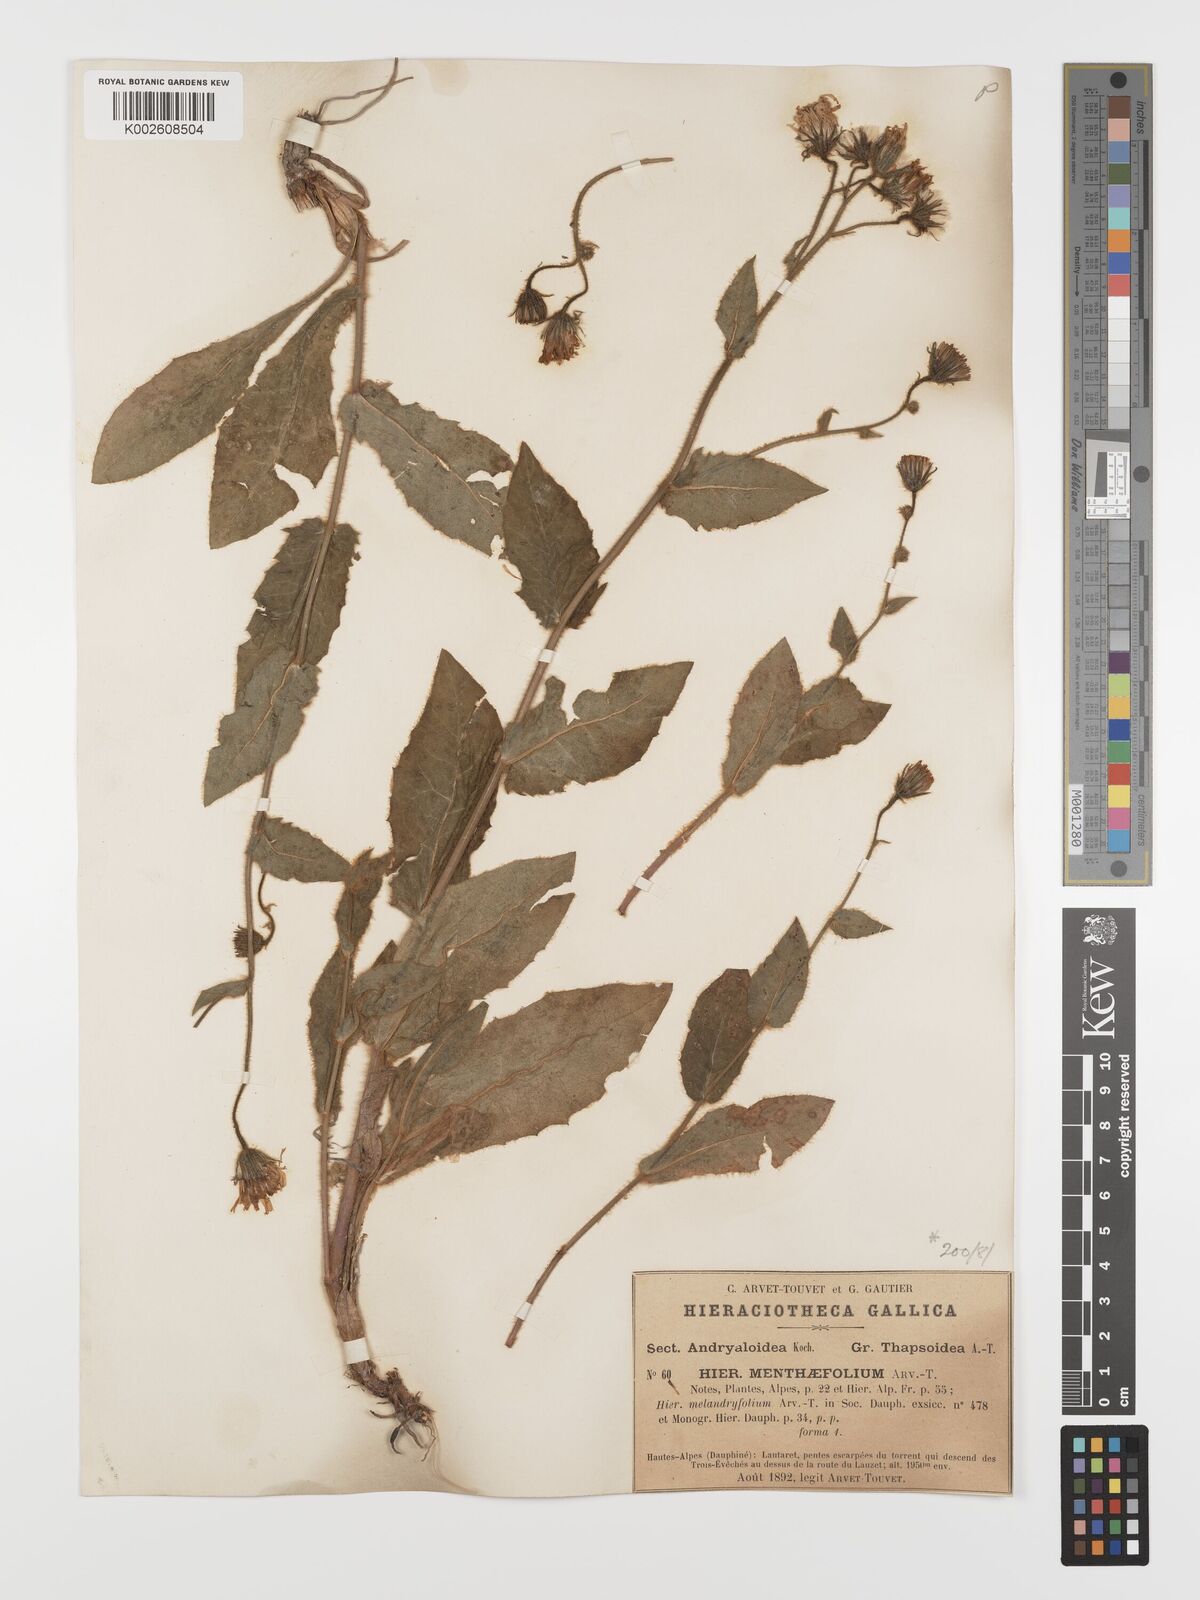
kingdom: Plantae
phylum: Tracheophyta
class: Magnoliopsida
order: Asterales
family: Asteraceae
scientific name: Asteraceae
